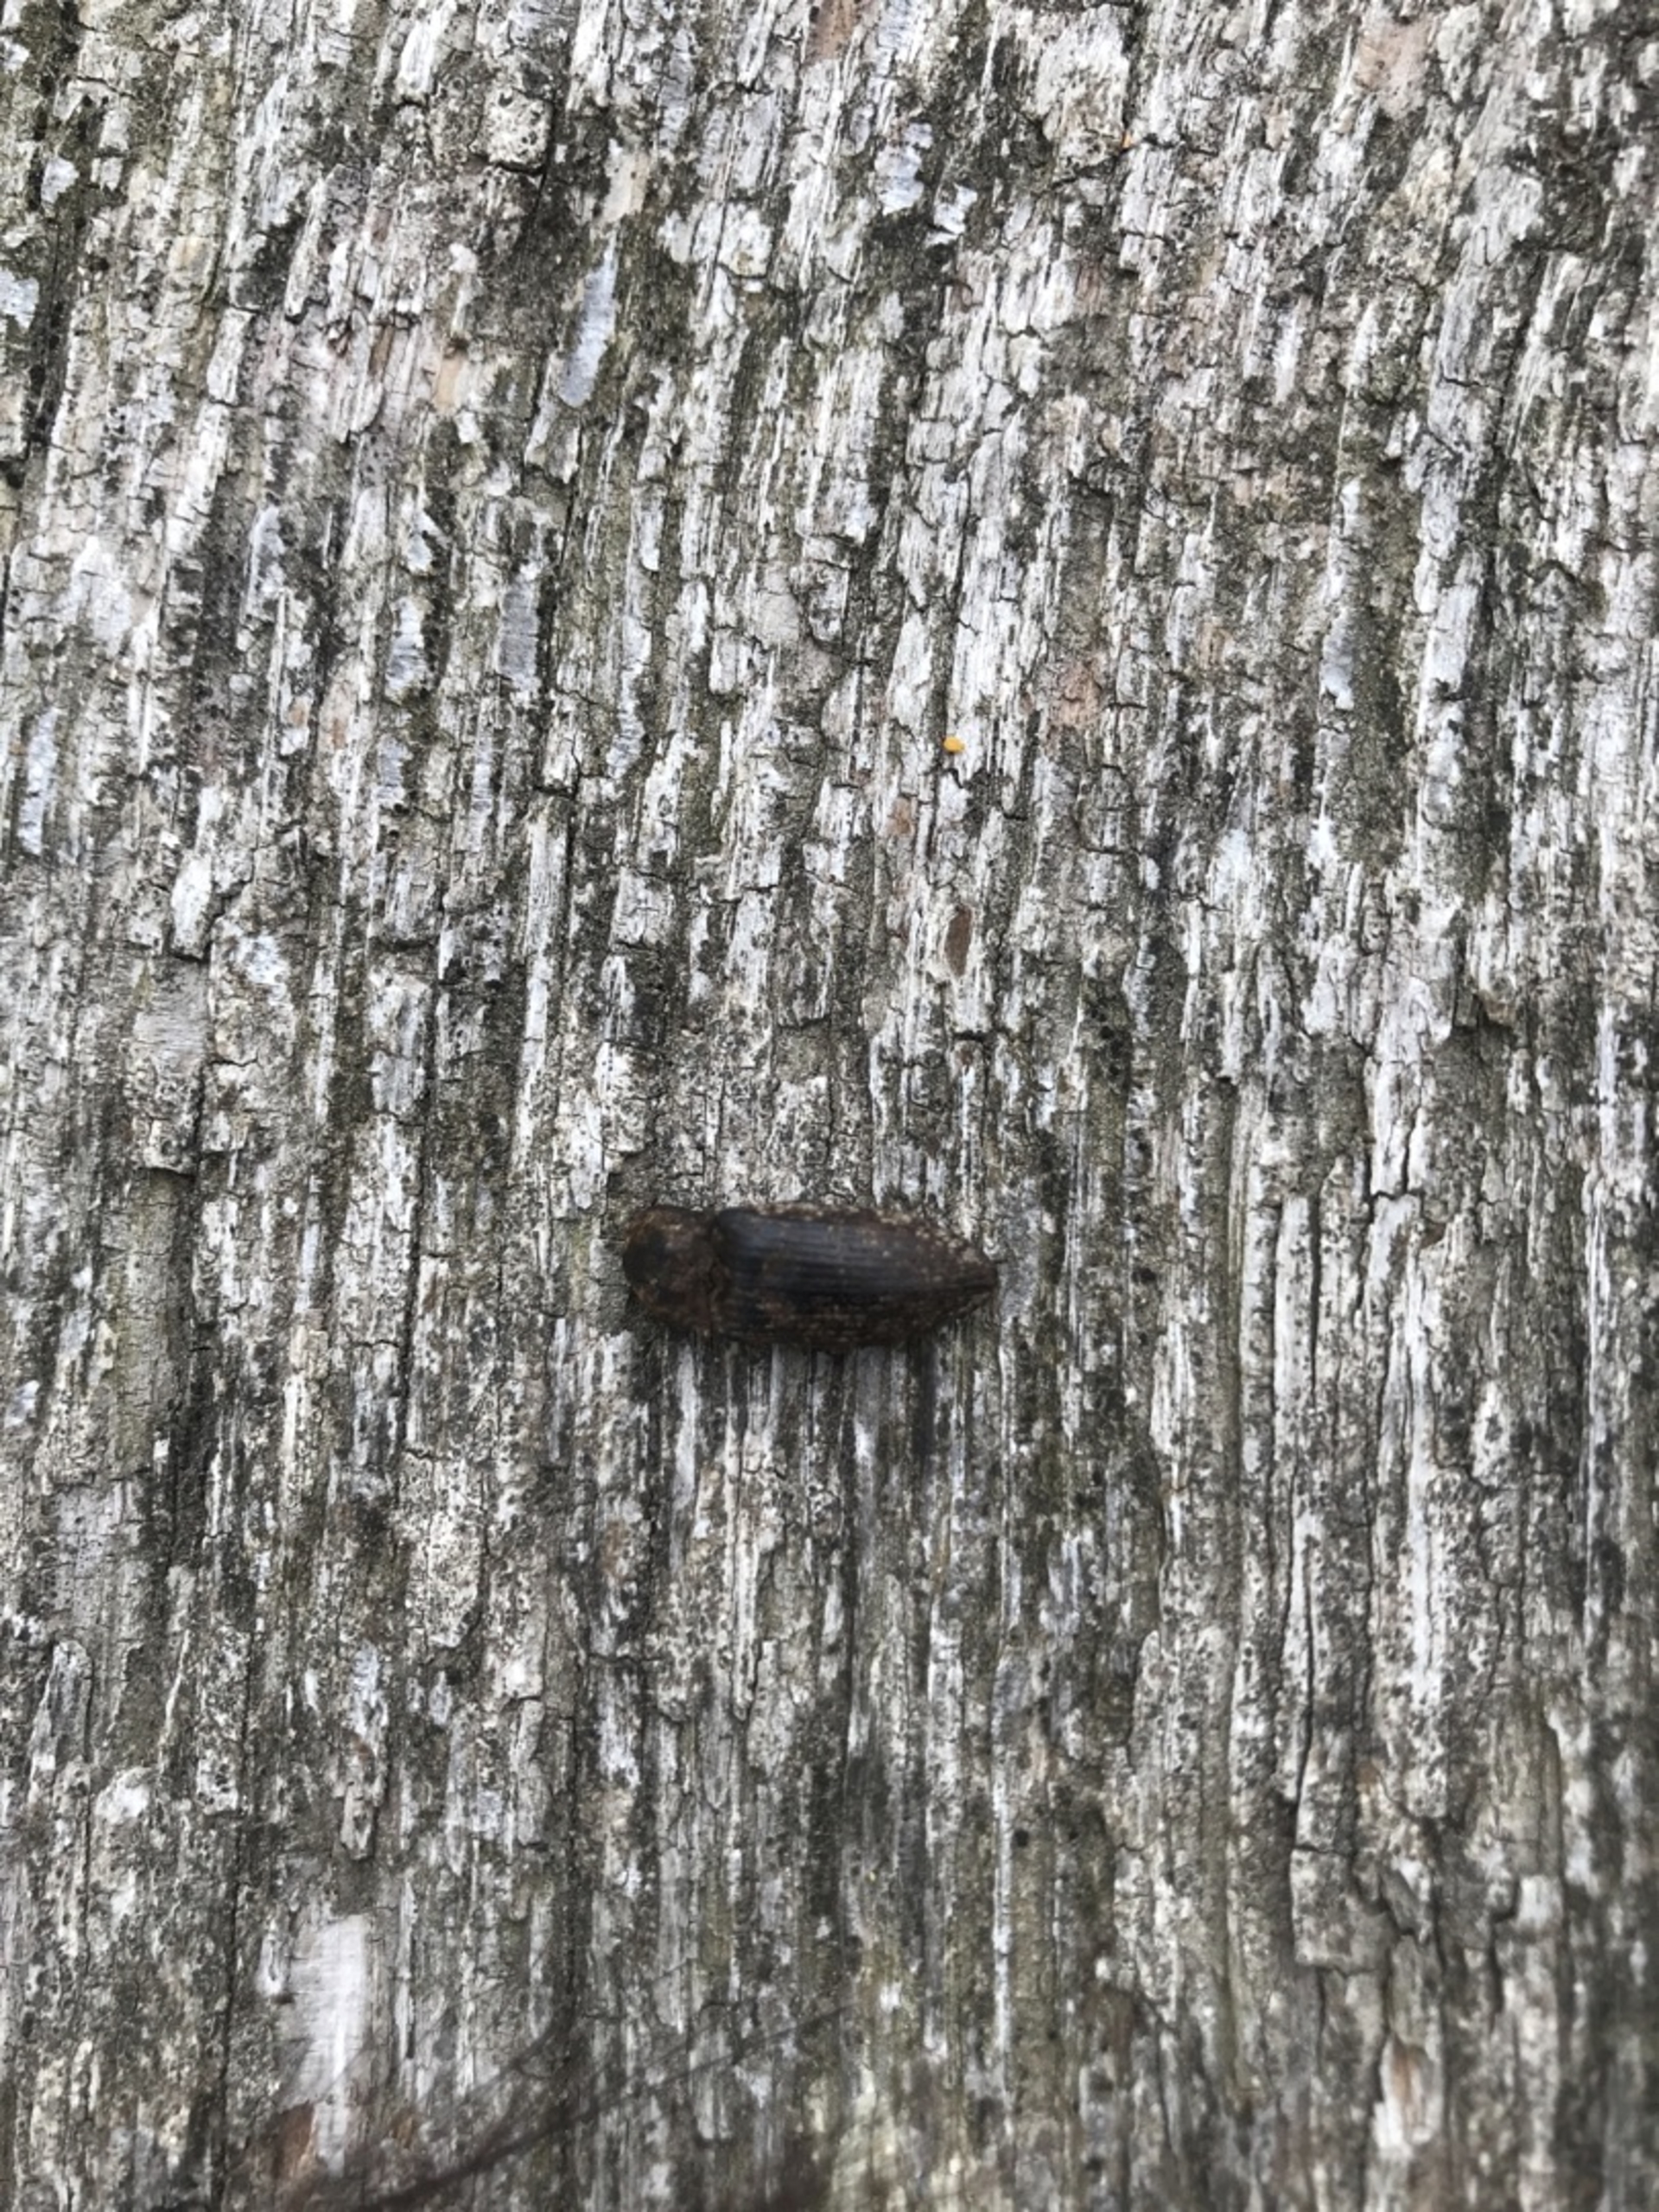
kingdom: Animalia
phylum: Arthropoda
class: Insecta
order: Coleoptera
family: Elateridae
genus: Agrypnus
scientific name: Agrypnus murinus
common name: Musegrå smælder
